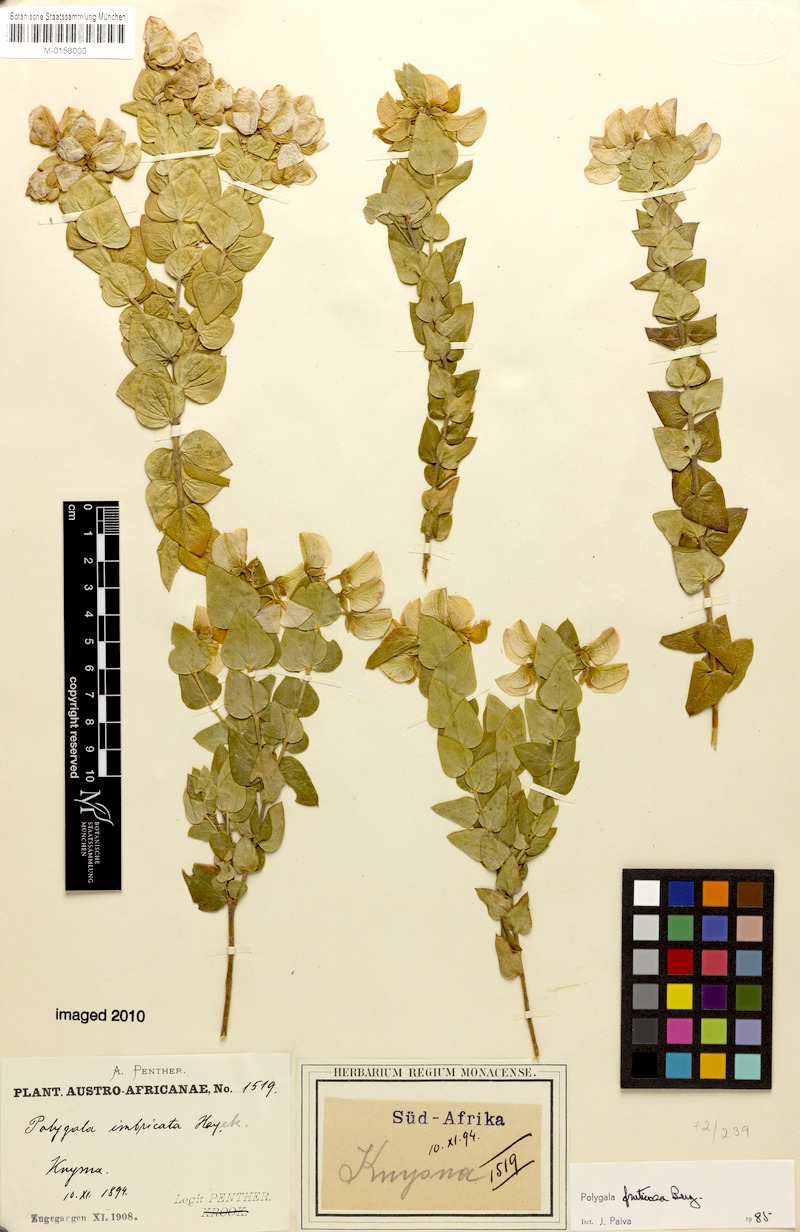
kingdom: Plantae
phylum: Tracheophyta
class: Magnoliopsida
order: Fabales
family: Polygalaceae
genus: Polygala
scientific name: Polygala fruticosa
